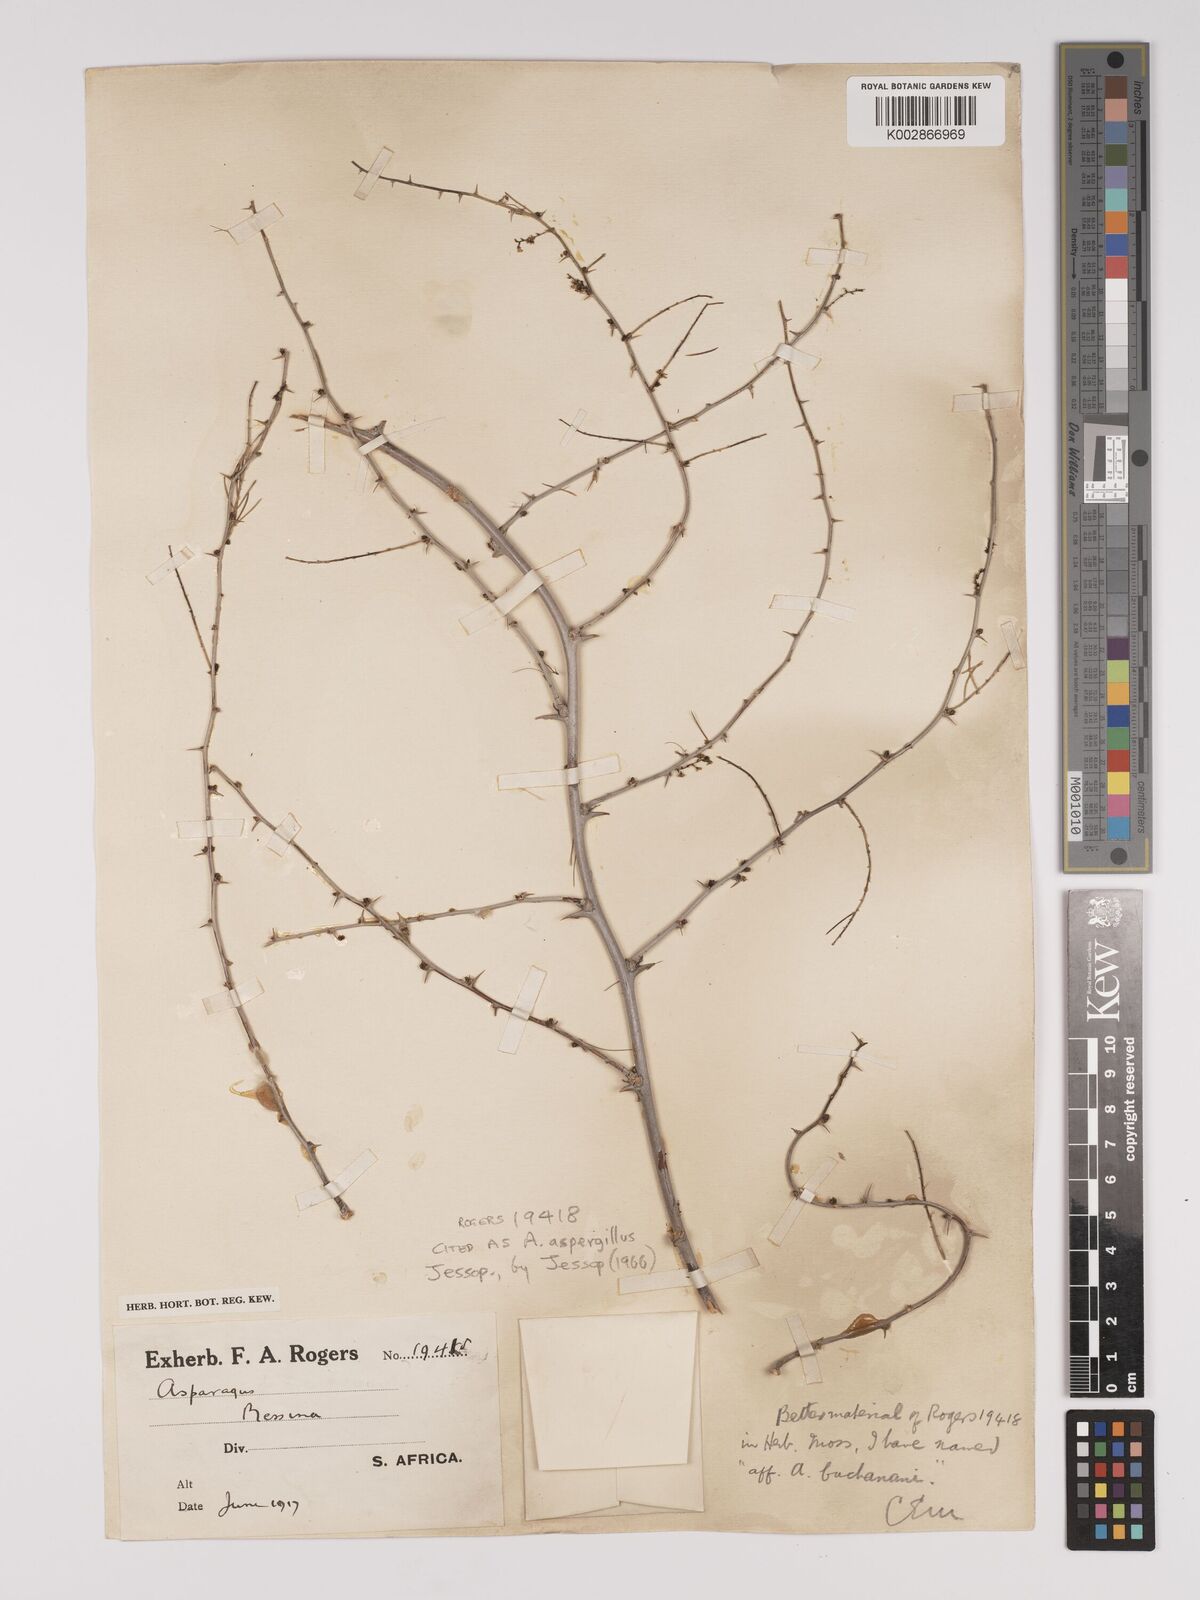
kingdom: Plantae
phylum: Tracheophyta
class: Liliopsida
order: Asparagales
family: Asparagaceae
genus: Asparagus
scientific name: Asparagus aspergillus
